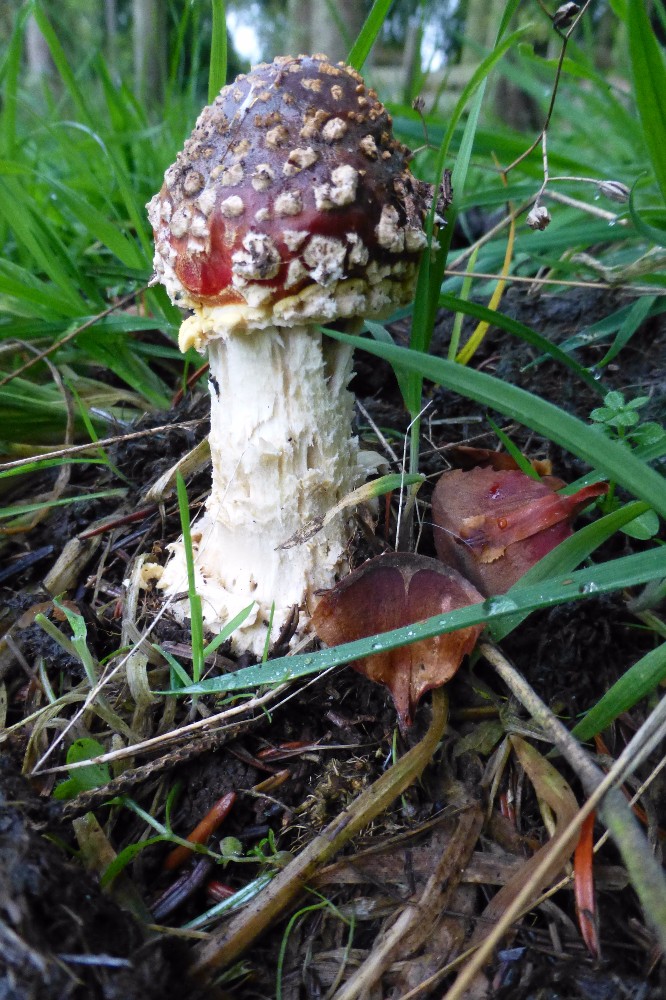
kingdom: Fungi
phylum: Basidiomycota
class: Agaricomycetes
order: Agaricales
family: Amanitaceae
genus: Amanita
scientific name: Amanita muscaria
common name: rød fluesvamp
